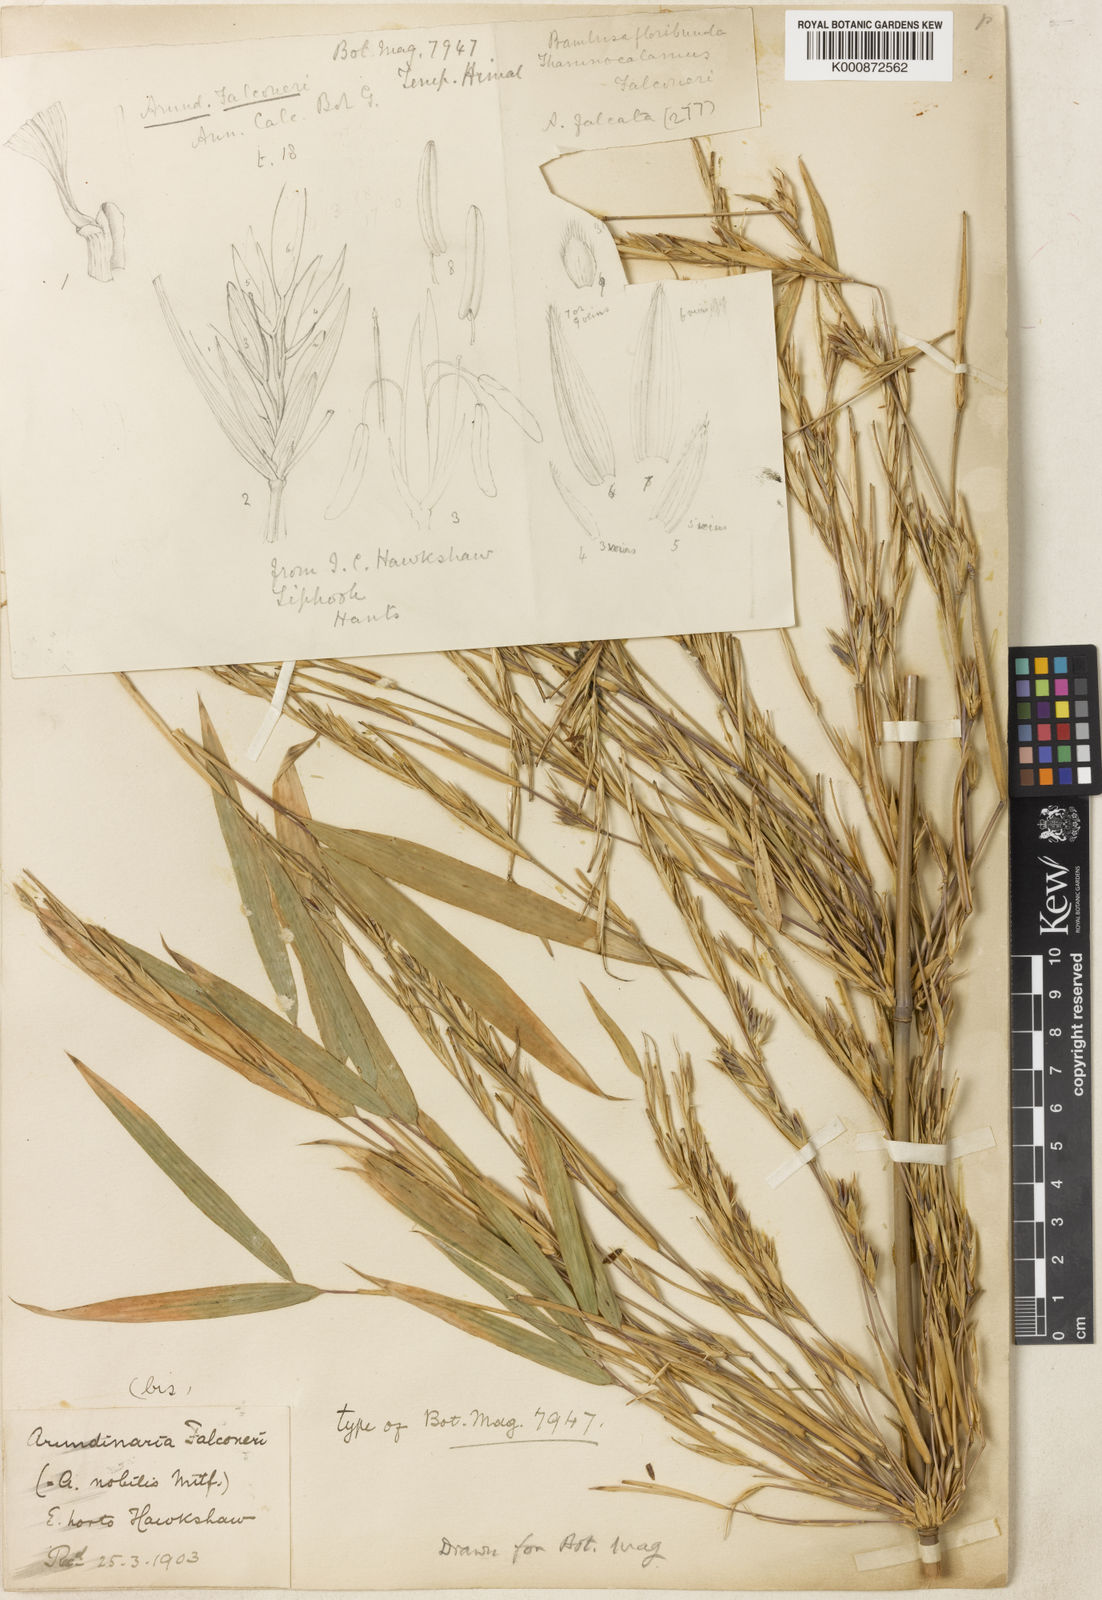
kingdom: Plantae
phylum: Tracheophyta
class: Liliopsida
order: Poales
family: Poaceae
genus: Himalayacalamus
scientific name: Himalayacalamus falconeri
